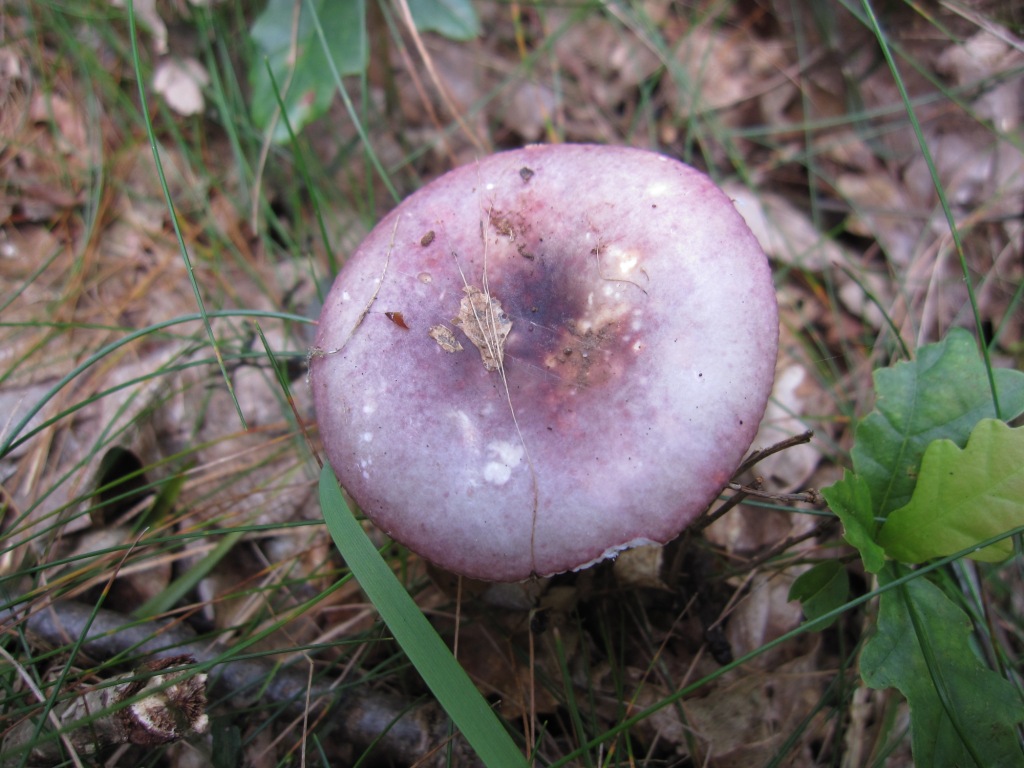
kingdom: Fungi
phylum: Basidiomycota
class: Agaricomycetes
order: Russulales
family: Russulaceae
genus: Russula
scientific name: Russula fragilis
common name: Fragile brittlegill
